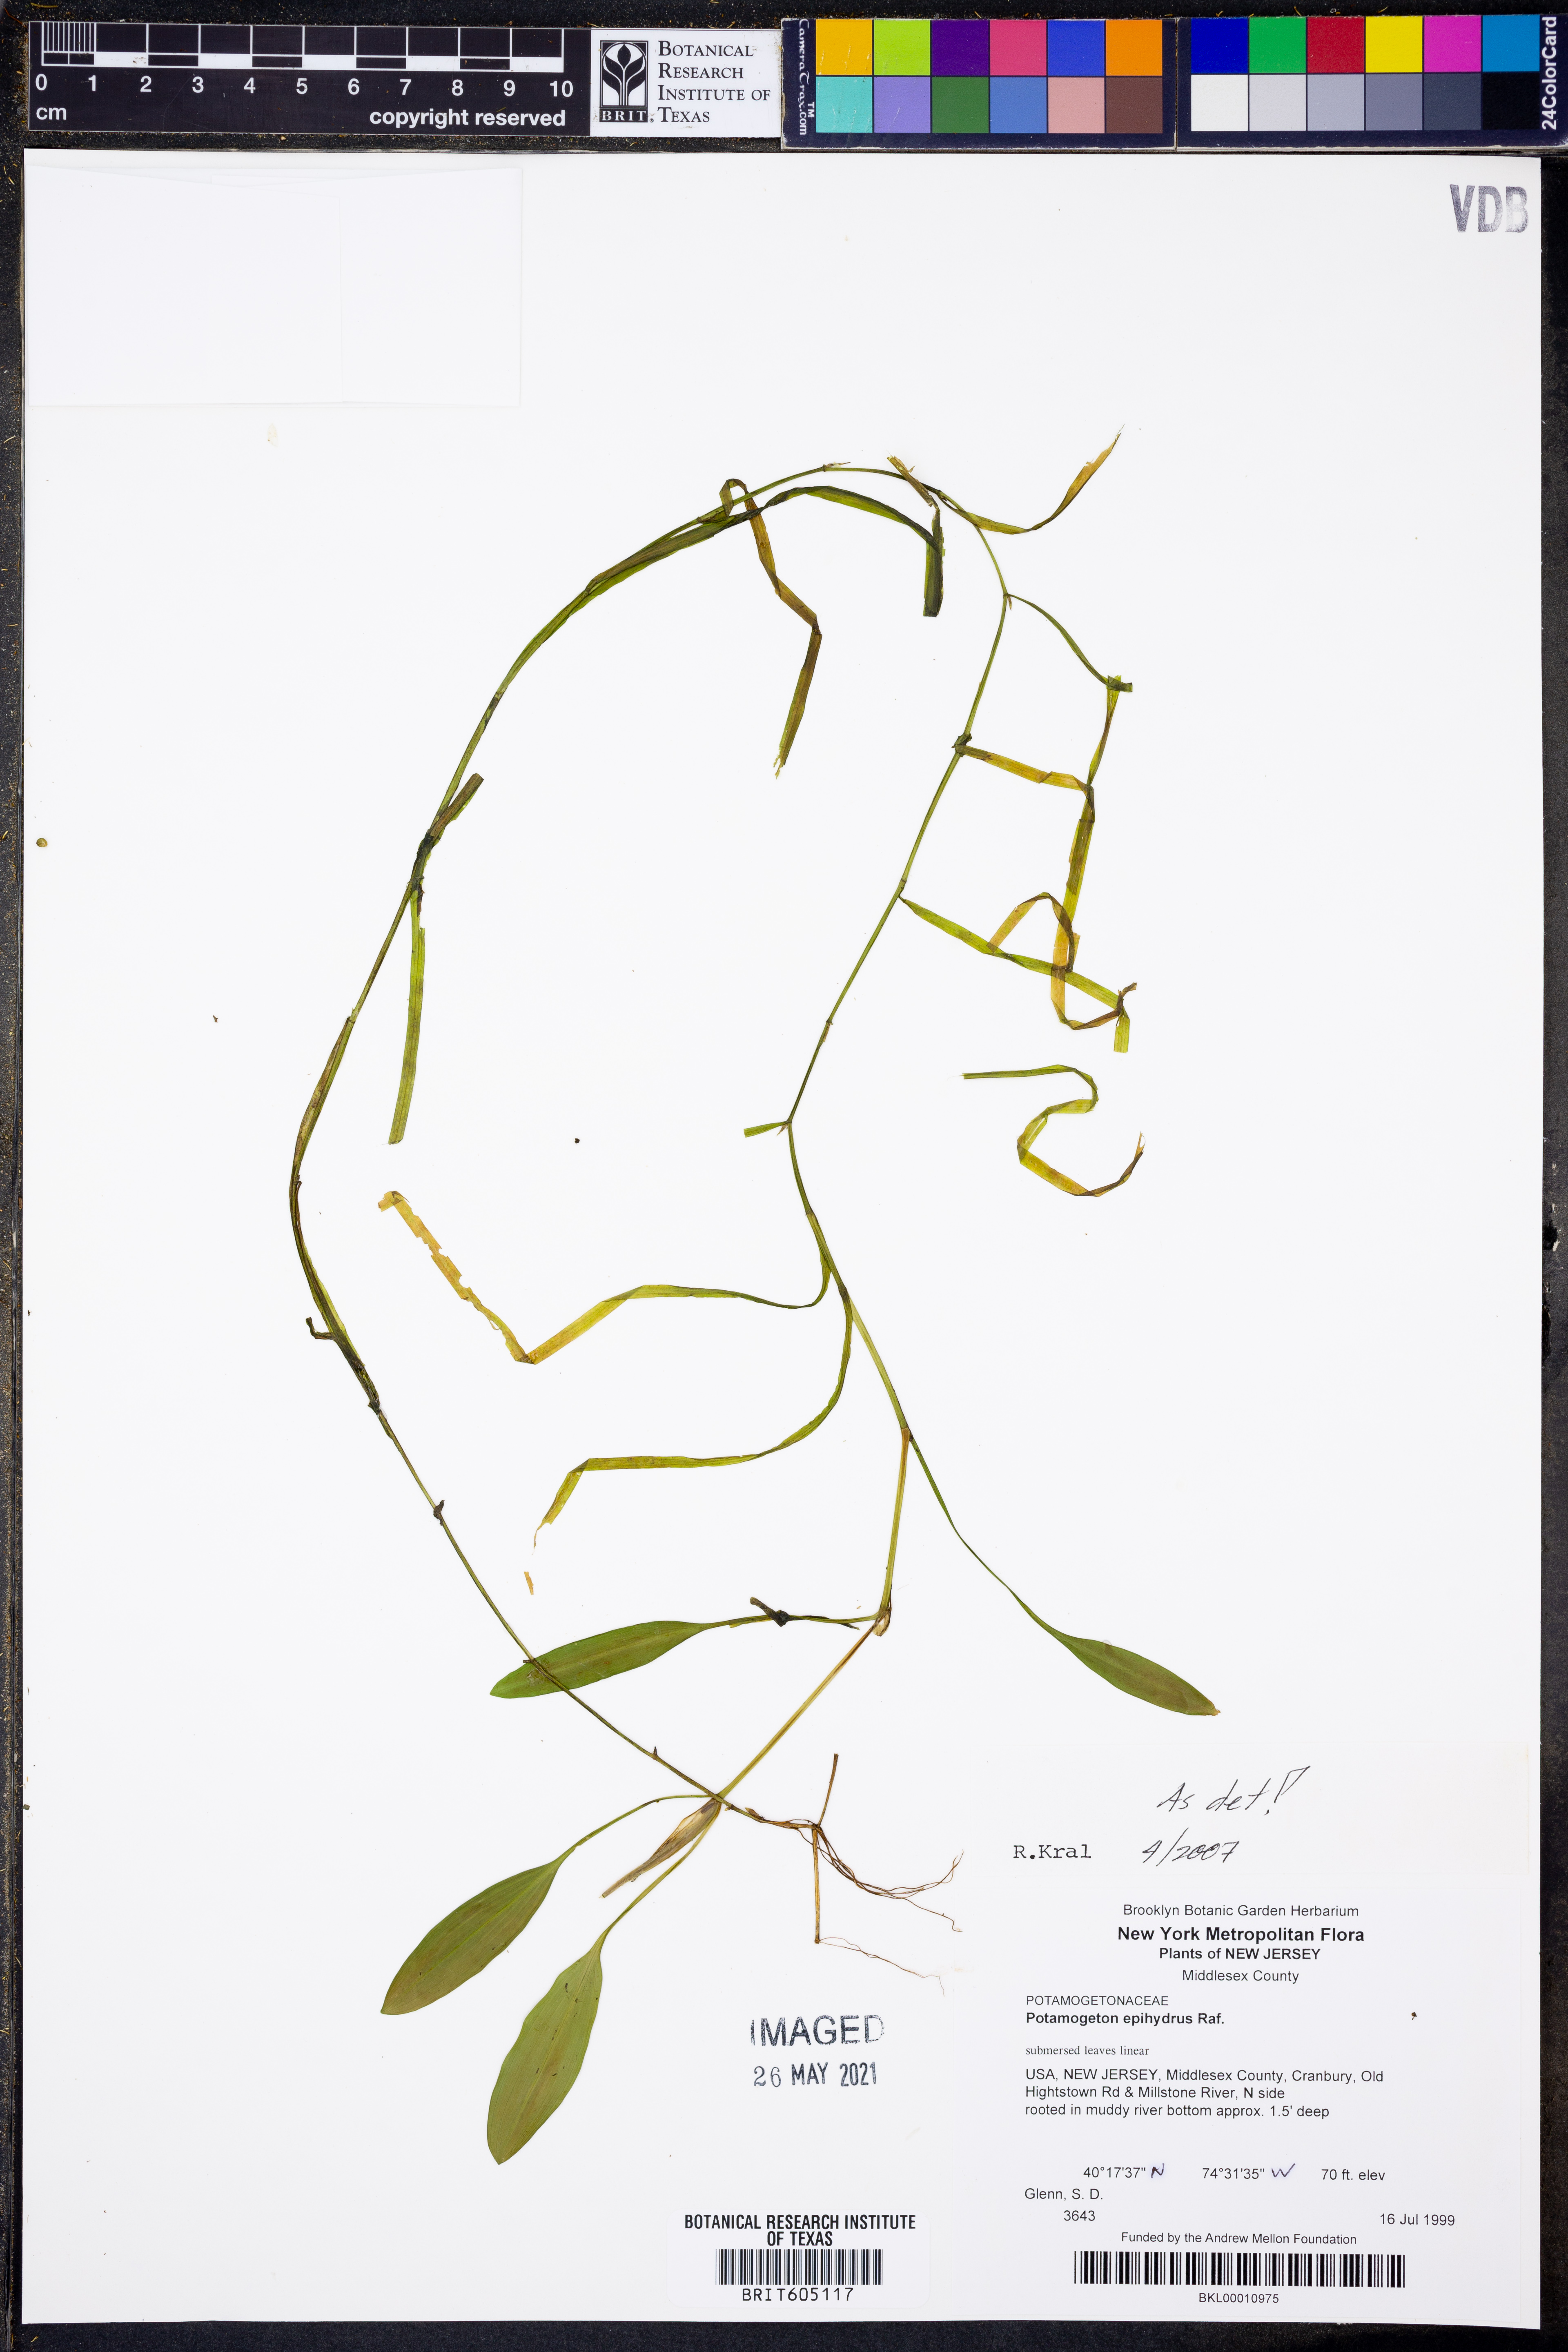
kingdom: Plantae
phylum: Tracheophyta
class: Liliopsida
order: Alismatales
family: Potamogetonaceae
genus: Potamogeton
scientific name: Potamogeton epihydrus
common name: American pondweed
